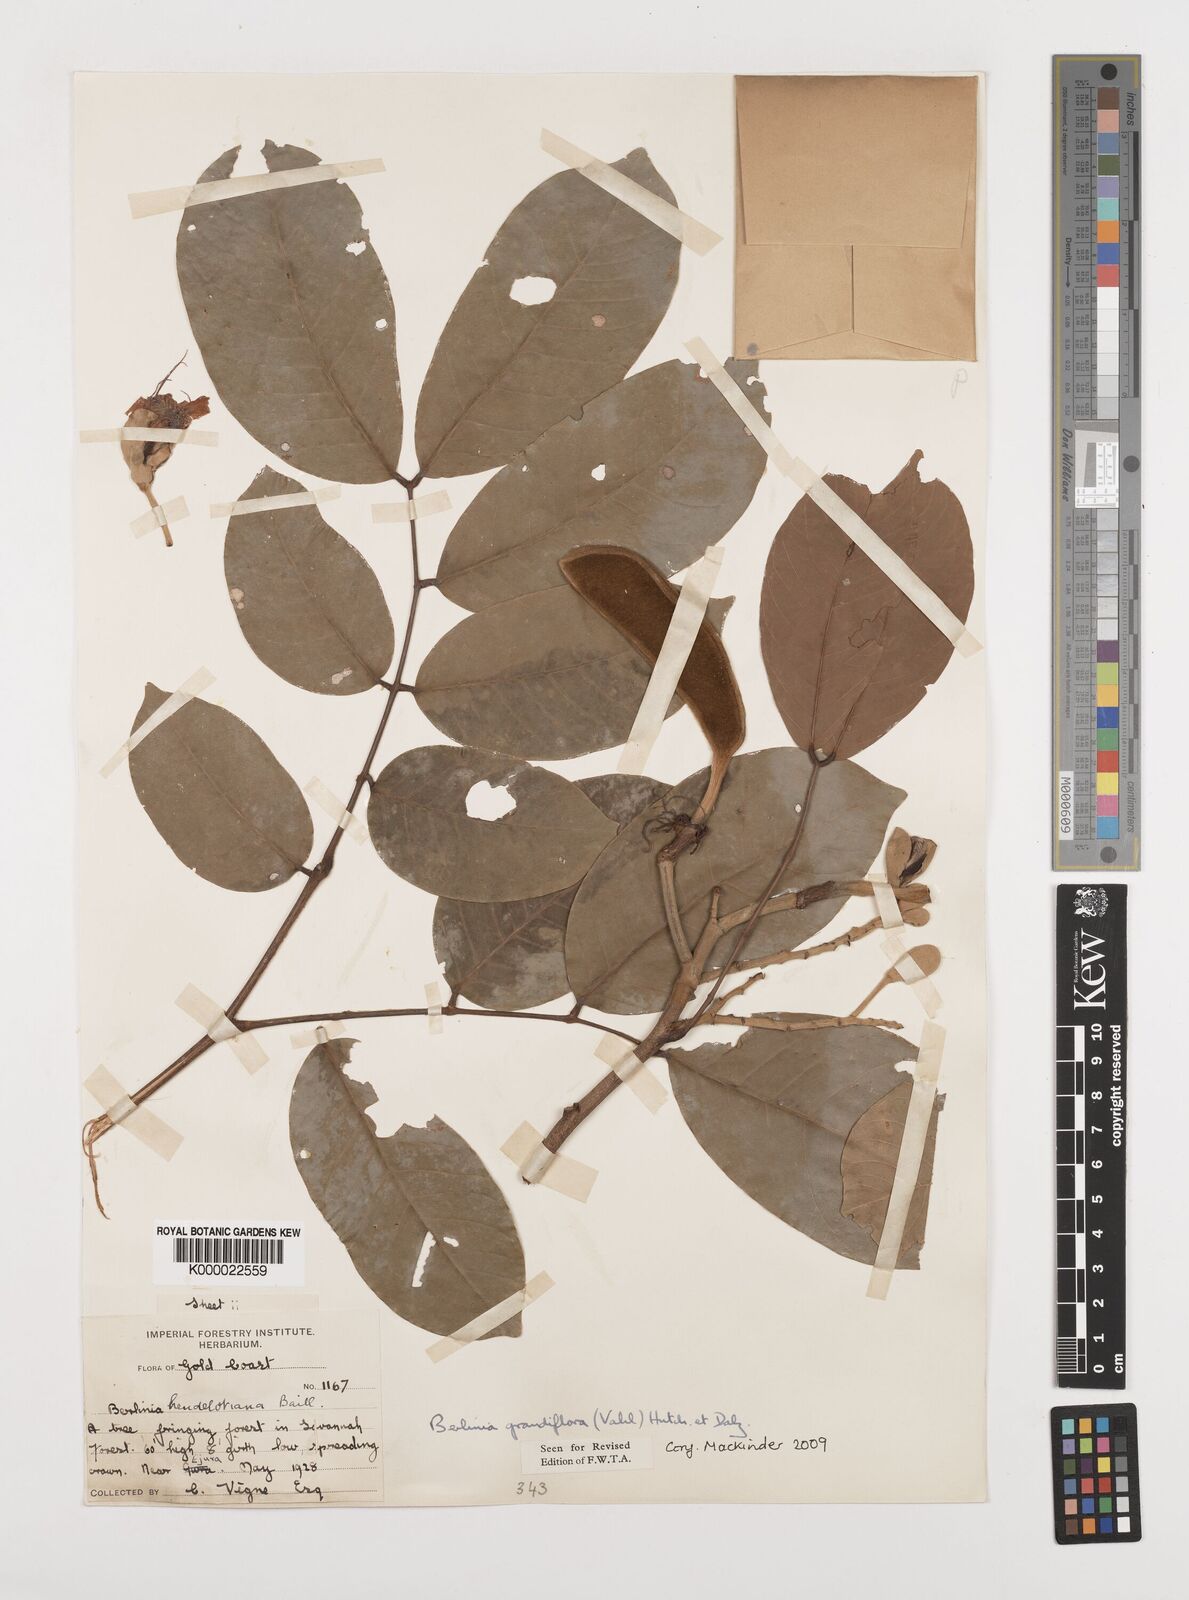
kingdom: Plantae
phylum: Tracheophyta
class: Magnoliopsida
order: Fabales
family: Fabaceae
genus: Berlinia
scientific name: Berlinia grandiflora
